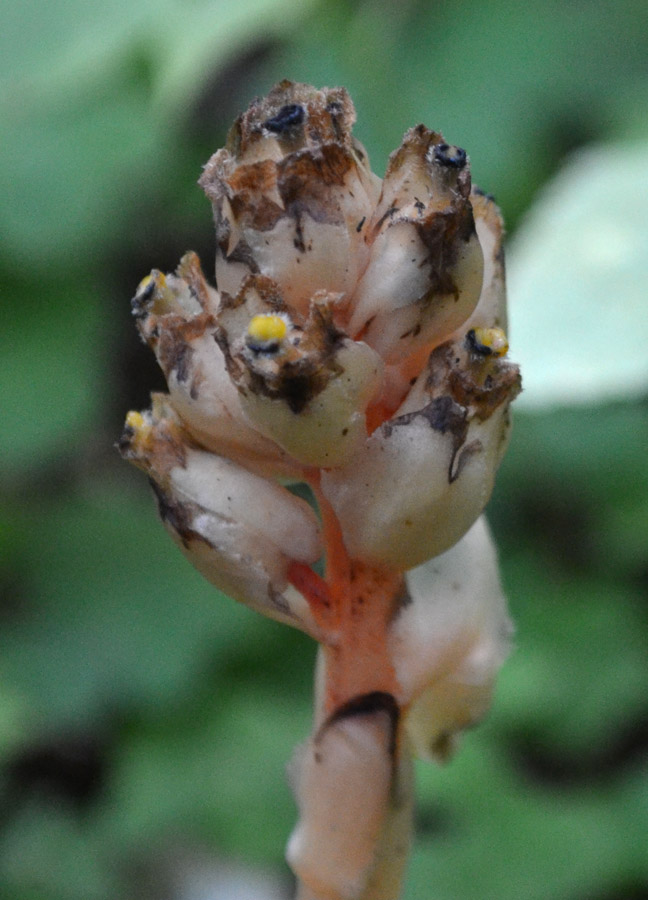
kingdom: Plantae
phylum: Tracheophyta
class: Magnoliopsida
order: Ericales
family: Ericaceae
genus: Hypopitys
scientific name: Hypopitys monotropa
